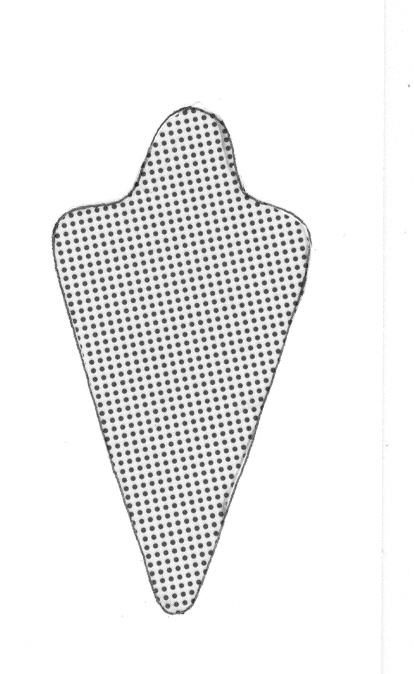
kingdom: Animalia
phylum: Chordata
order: Perciformes
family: Serranidae
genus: Odontanthias
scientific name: Odontanthias borbonius
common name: Checked swallowtail
